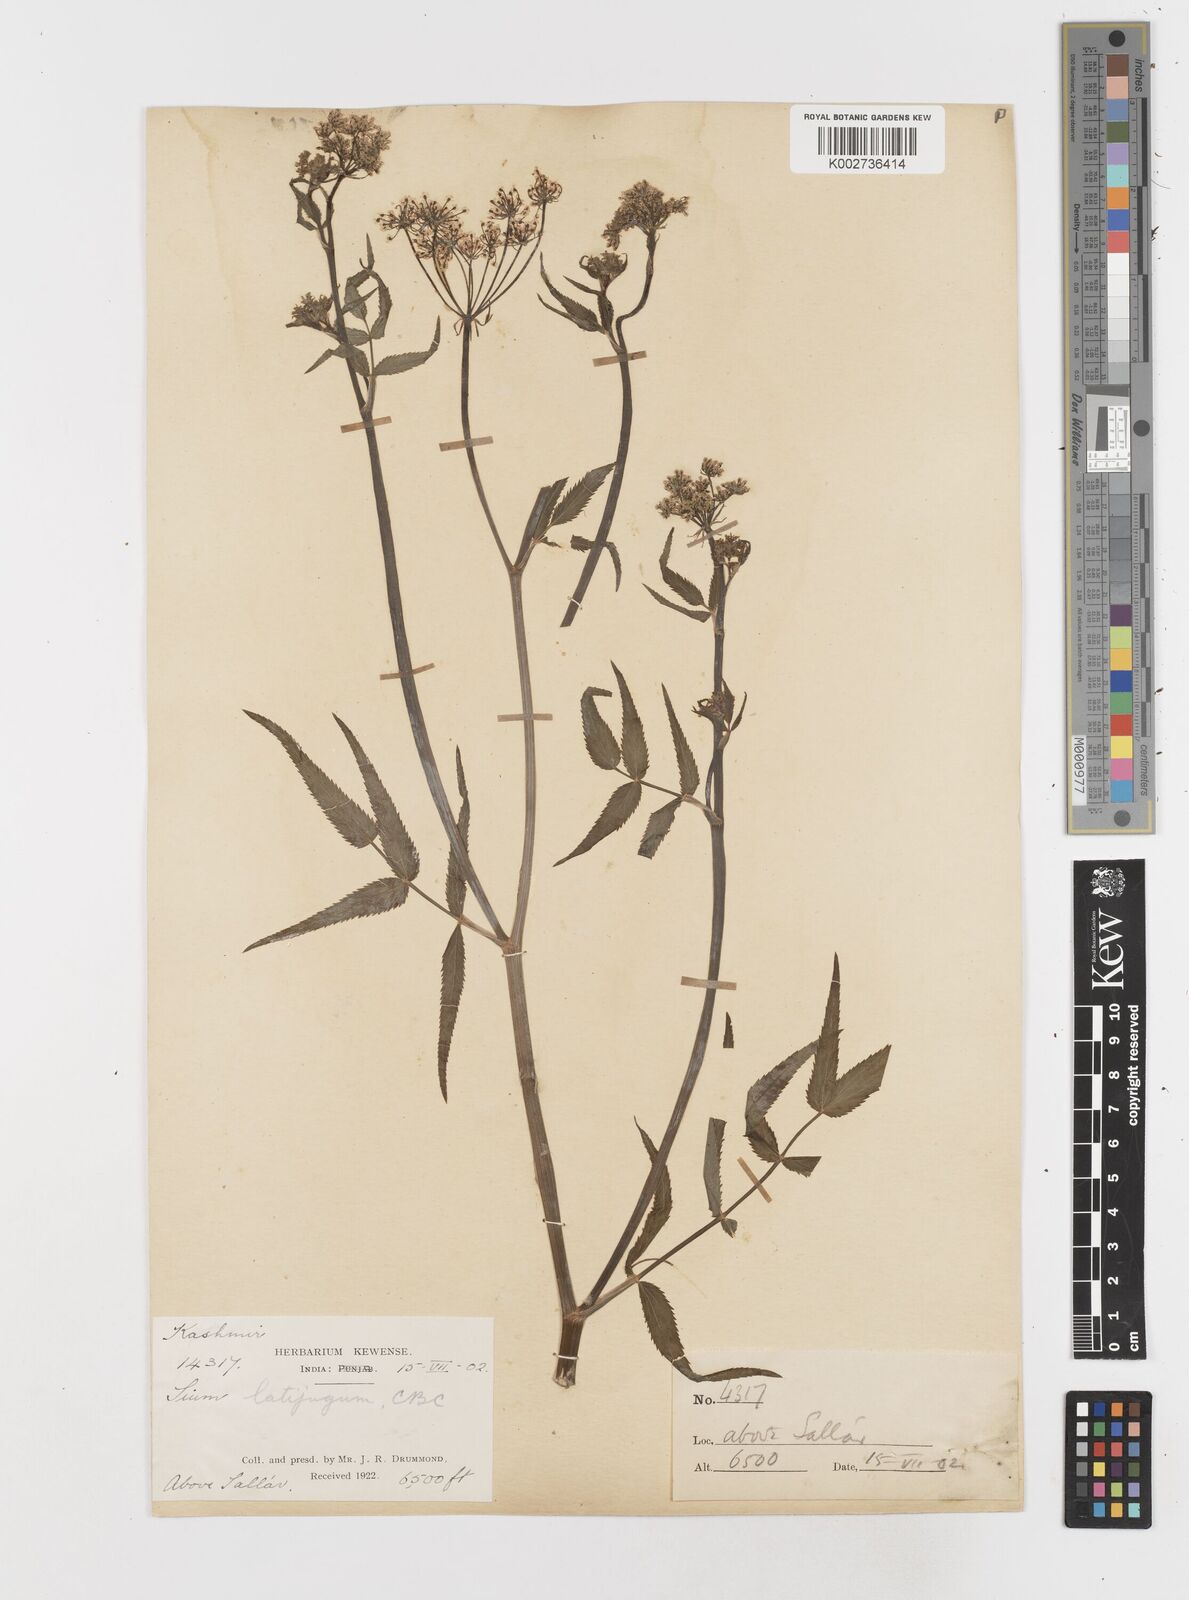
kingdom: Plantae
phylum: Tracheophyta
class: Magnoliopsida
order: Apiales
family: Apiaceae
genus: Sium
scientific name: Sium sisarum
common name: Skirret
